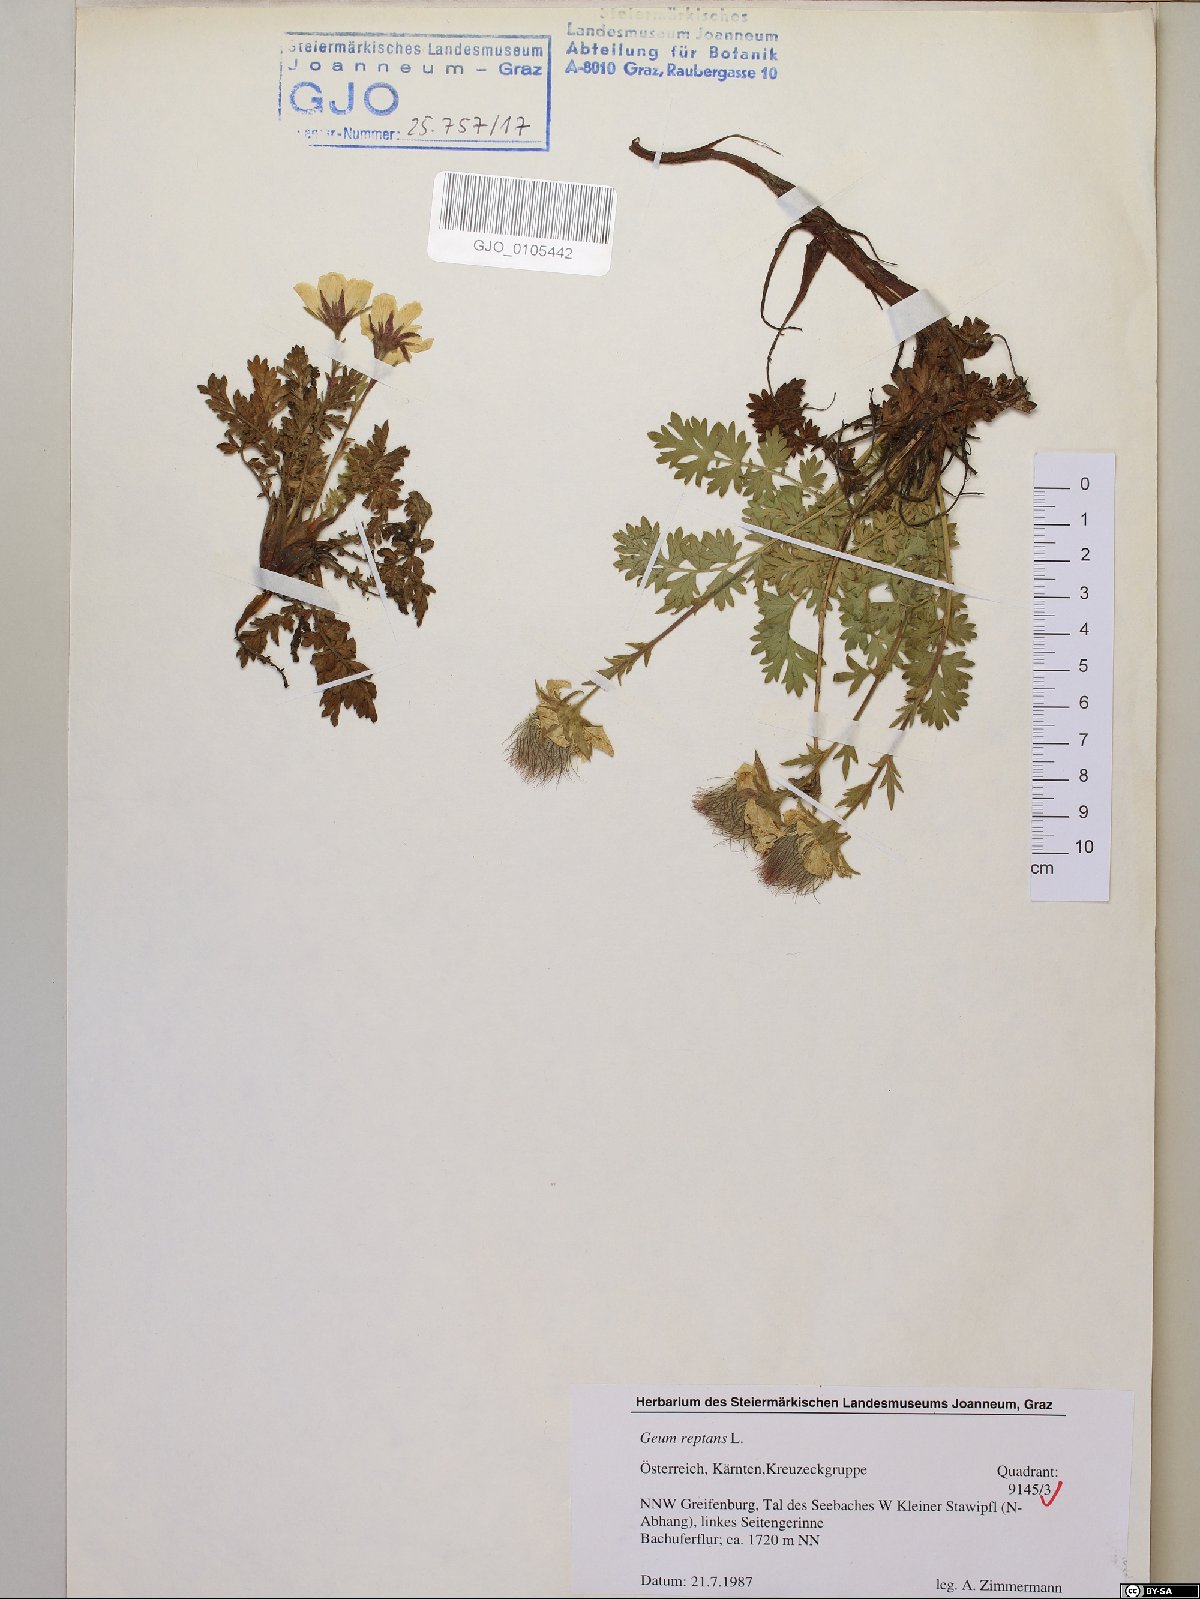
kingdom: Plantae
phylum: Tracheophyta
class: Magnoliopsida
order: Rosales
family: Rosaceae
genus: Geum
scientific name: Geum reptans
